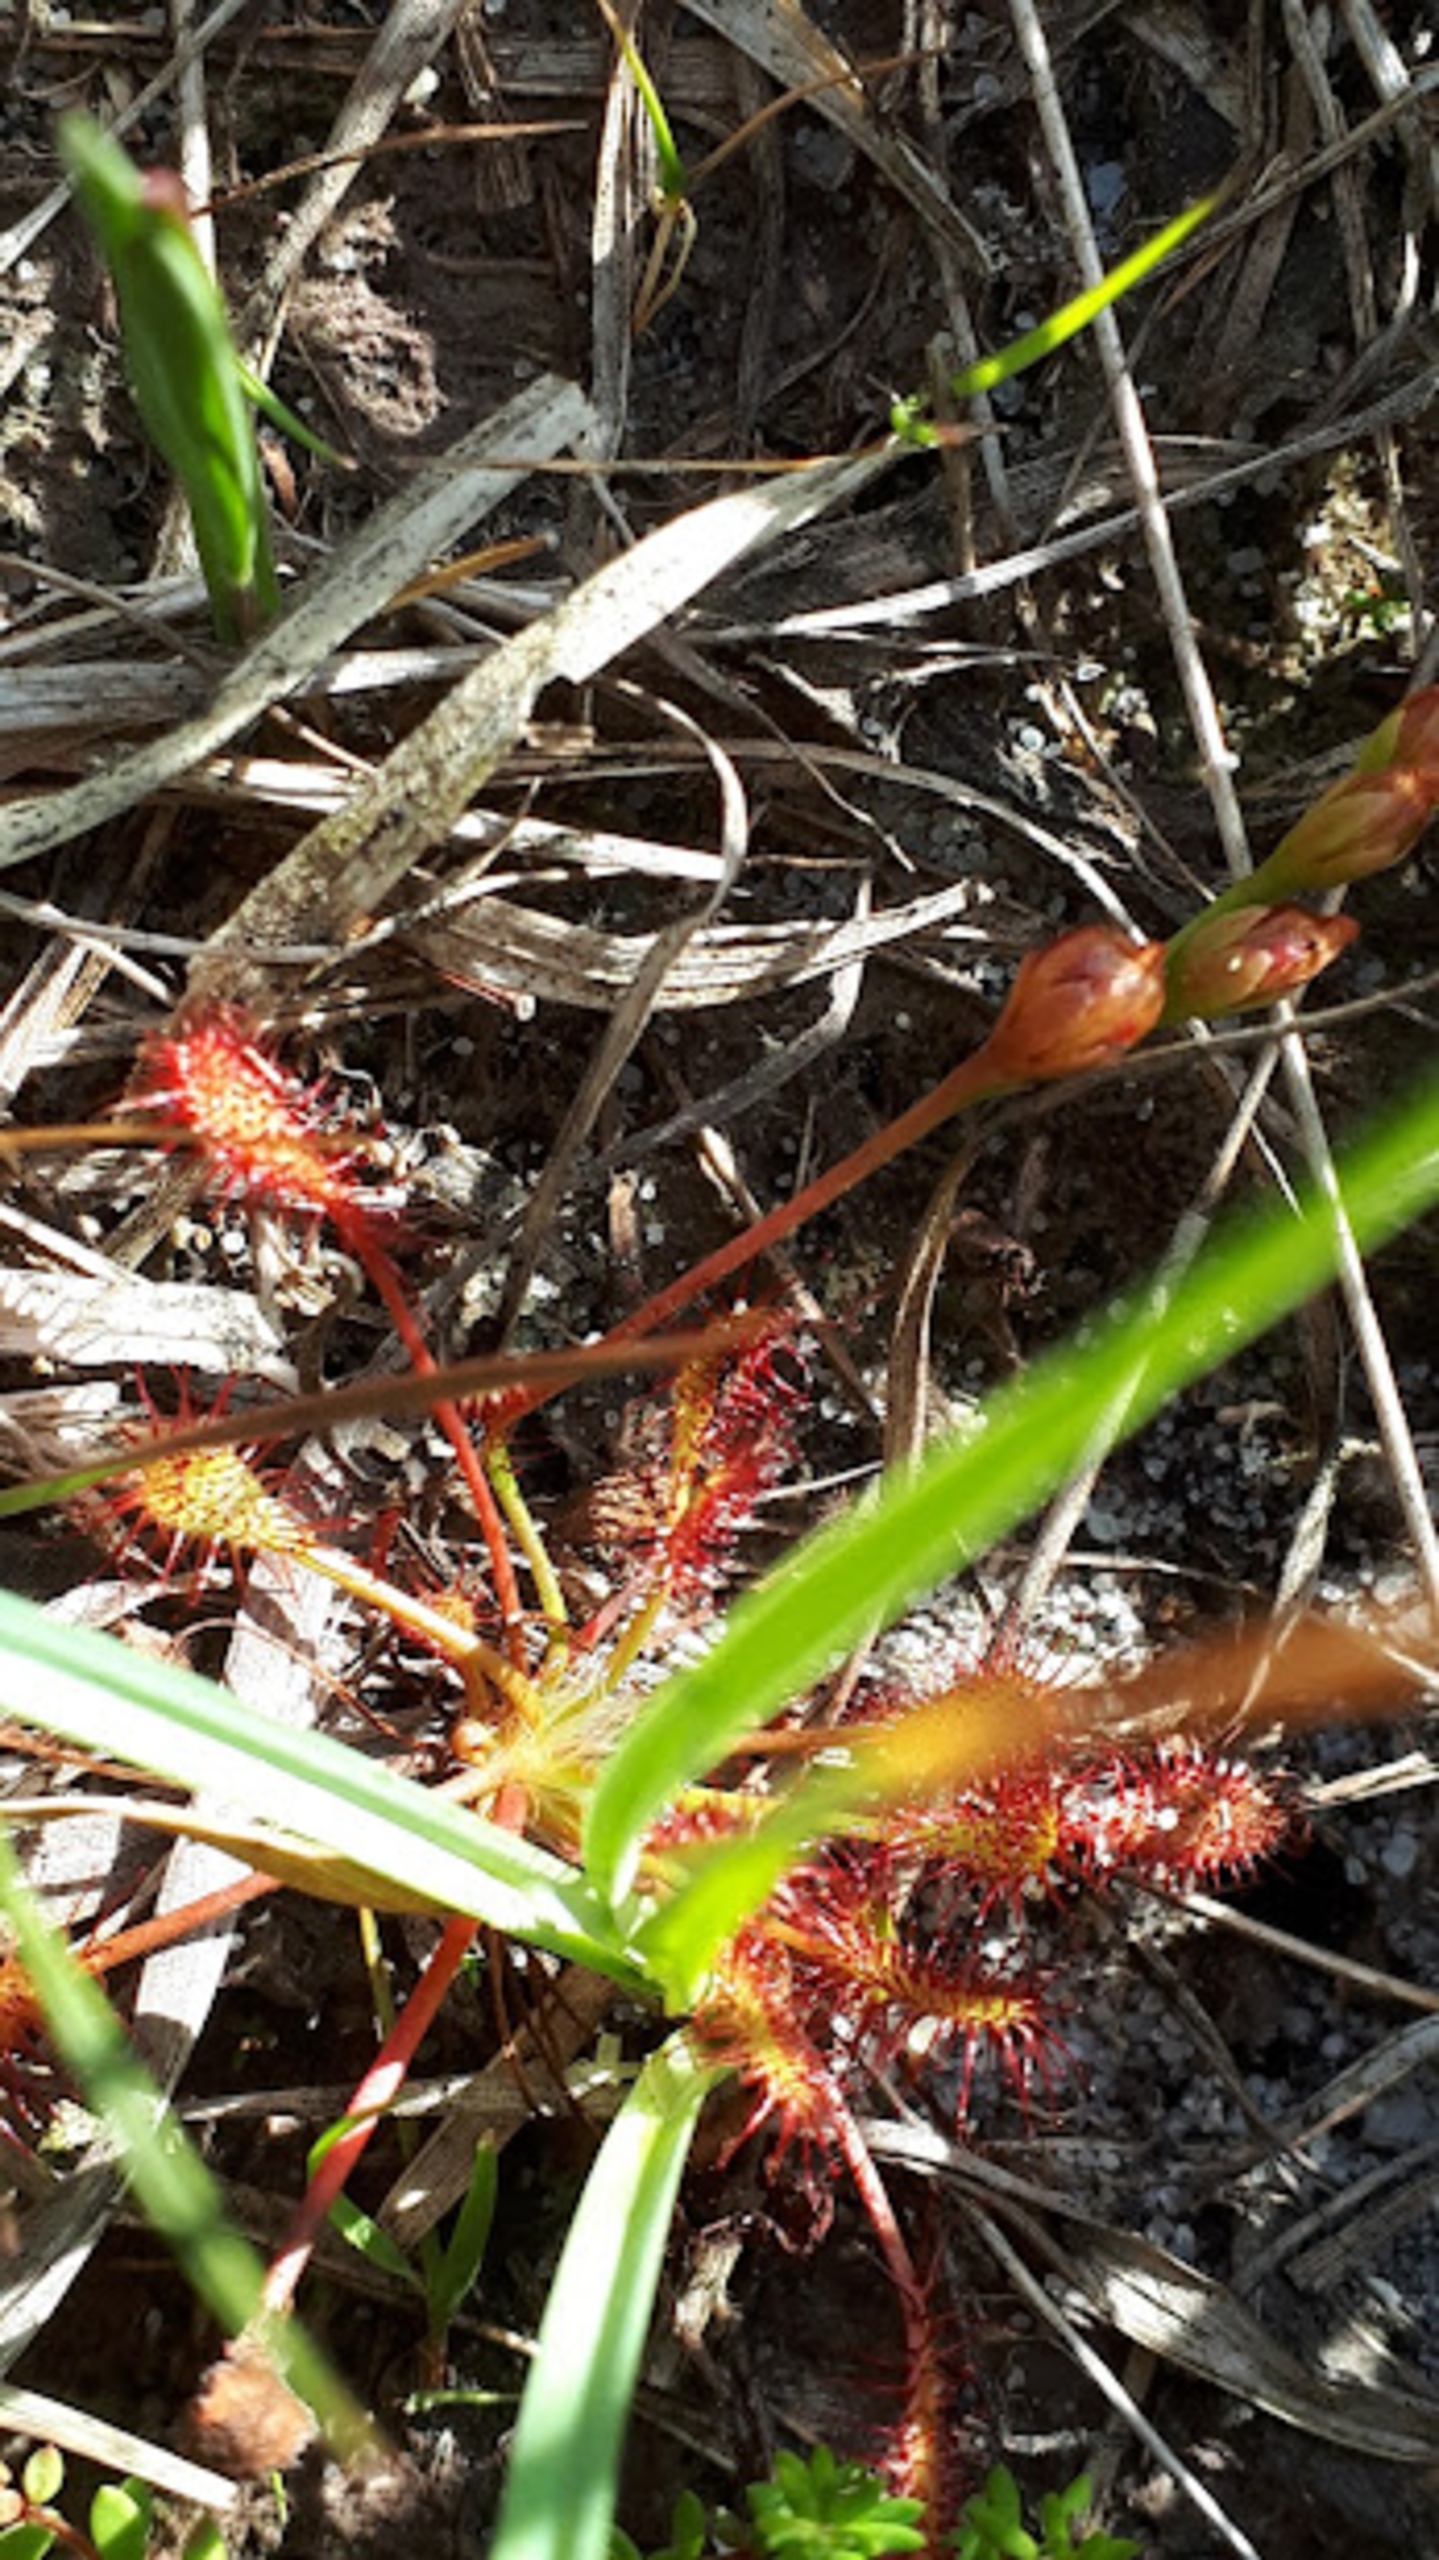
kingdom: Plantae
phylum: Tracheophyta
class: Magnoliopsida
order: Caryophyllales
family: Droseraceae
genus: Drosera
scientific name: Drosera intermedia
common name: Liden soldug
